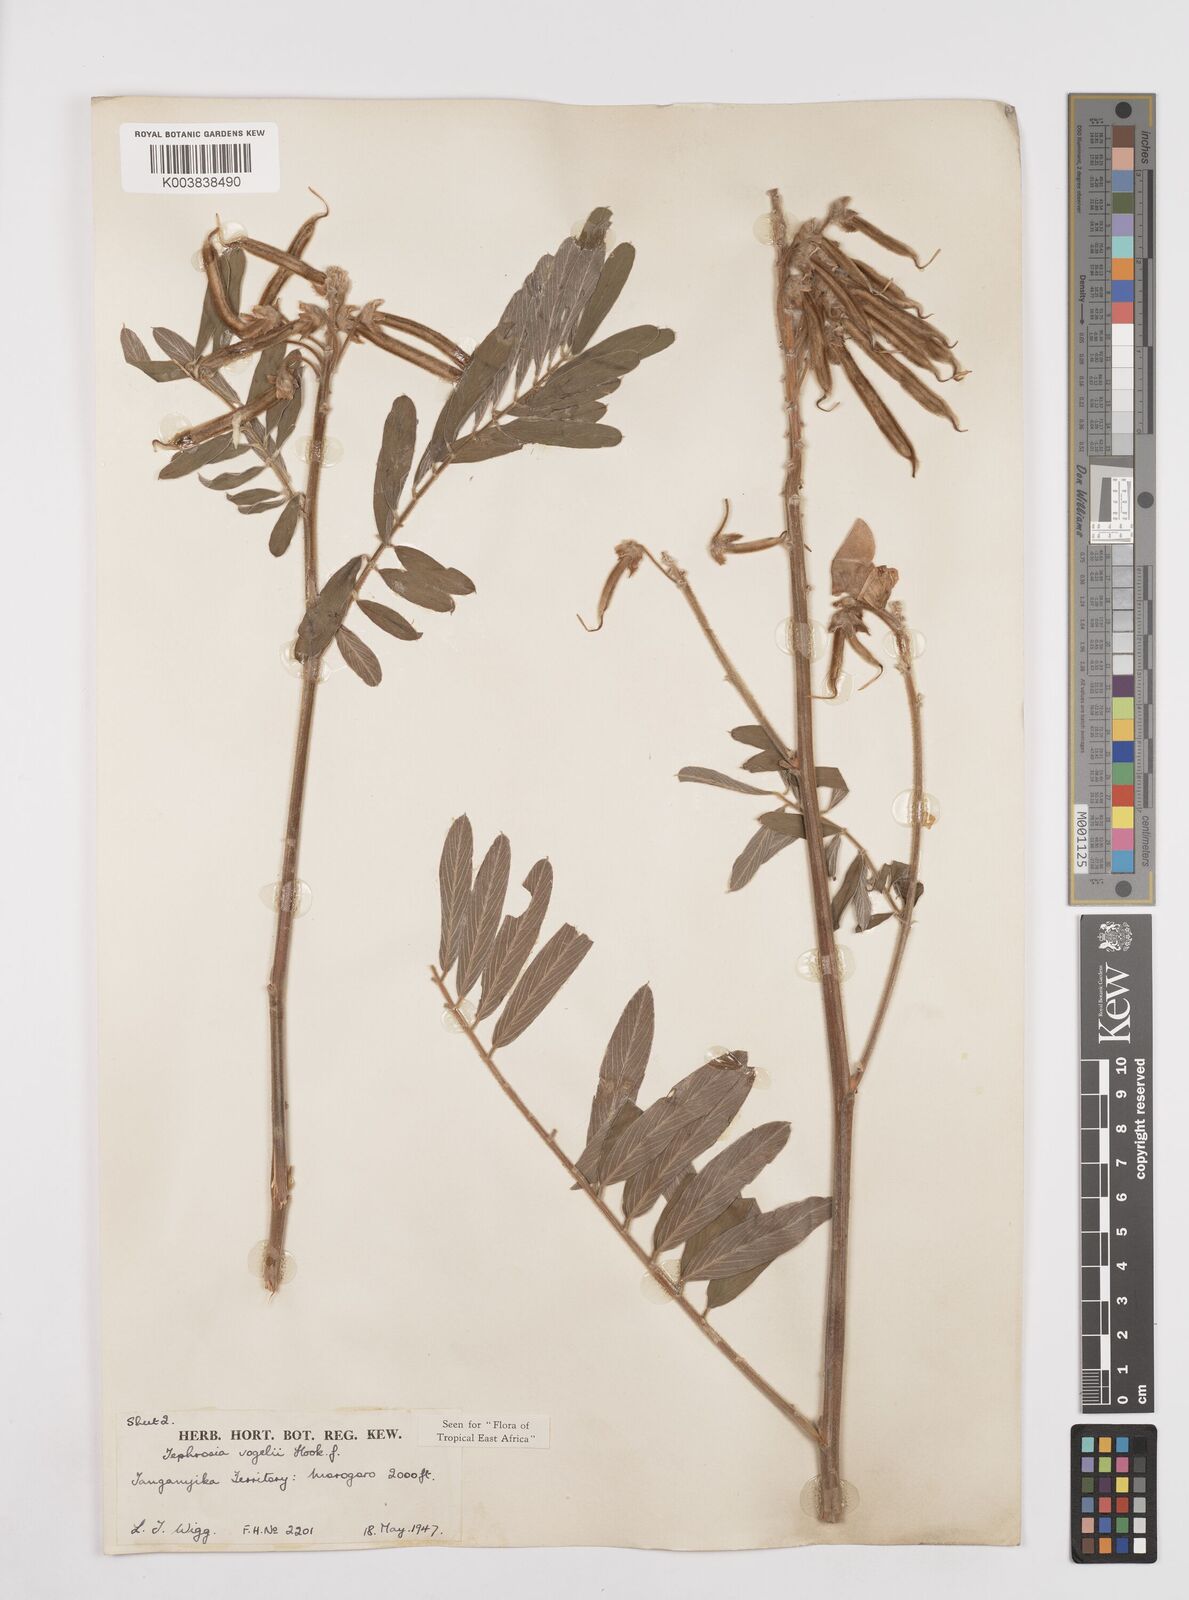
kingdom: Plantae
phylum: Tracheophyta
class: Magnoliopsida
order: Fabales
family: Fabaceae
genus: Tephrosia
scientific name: Tephrosia vogelii
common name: Vogel tephrosia
